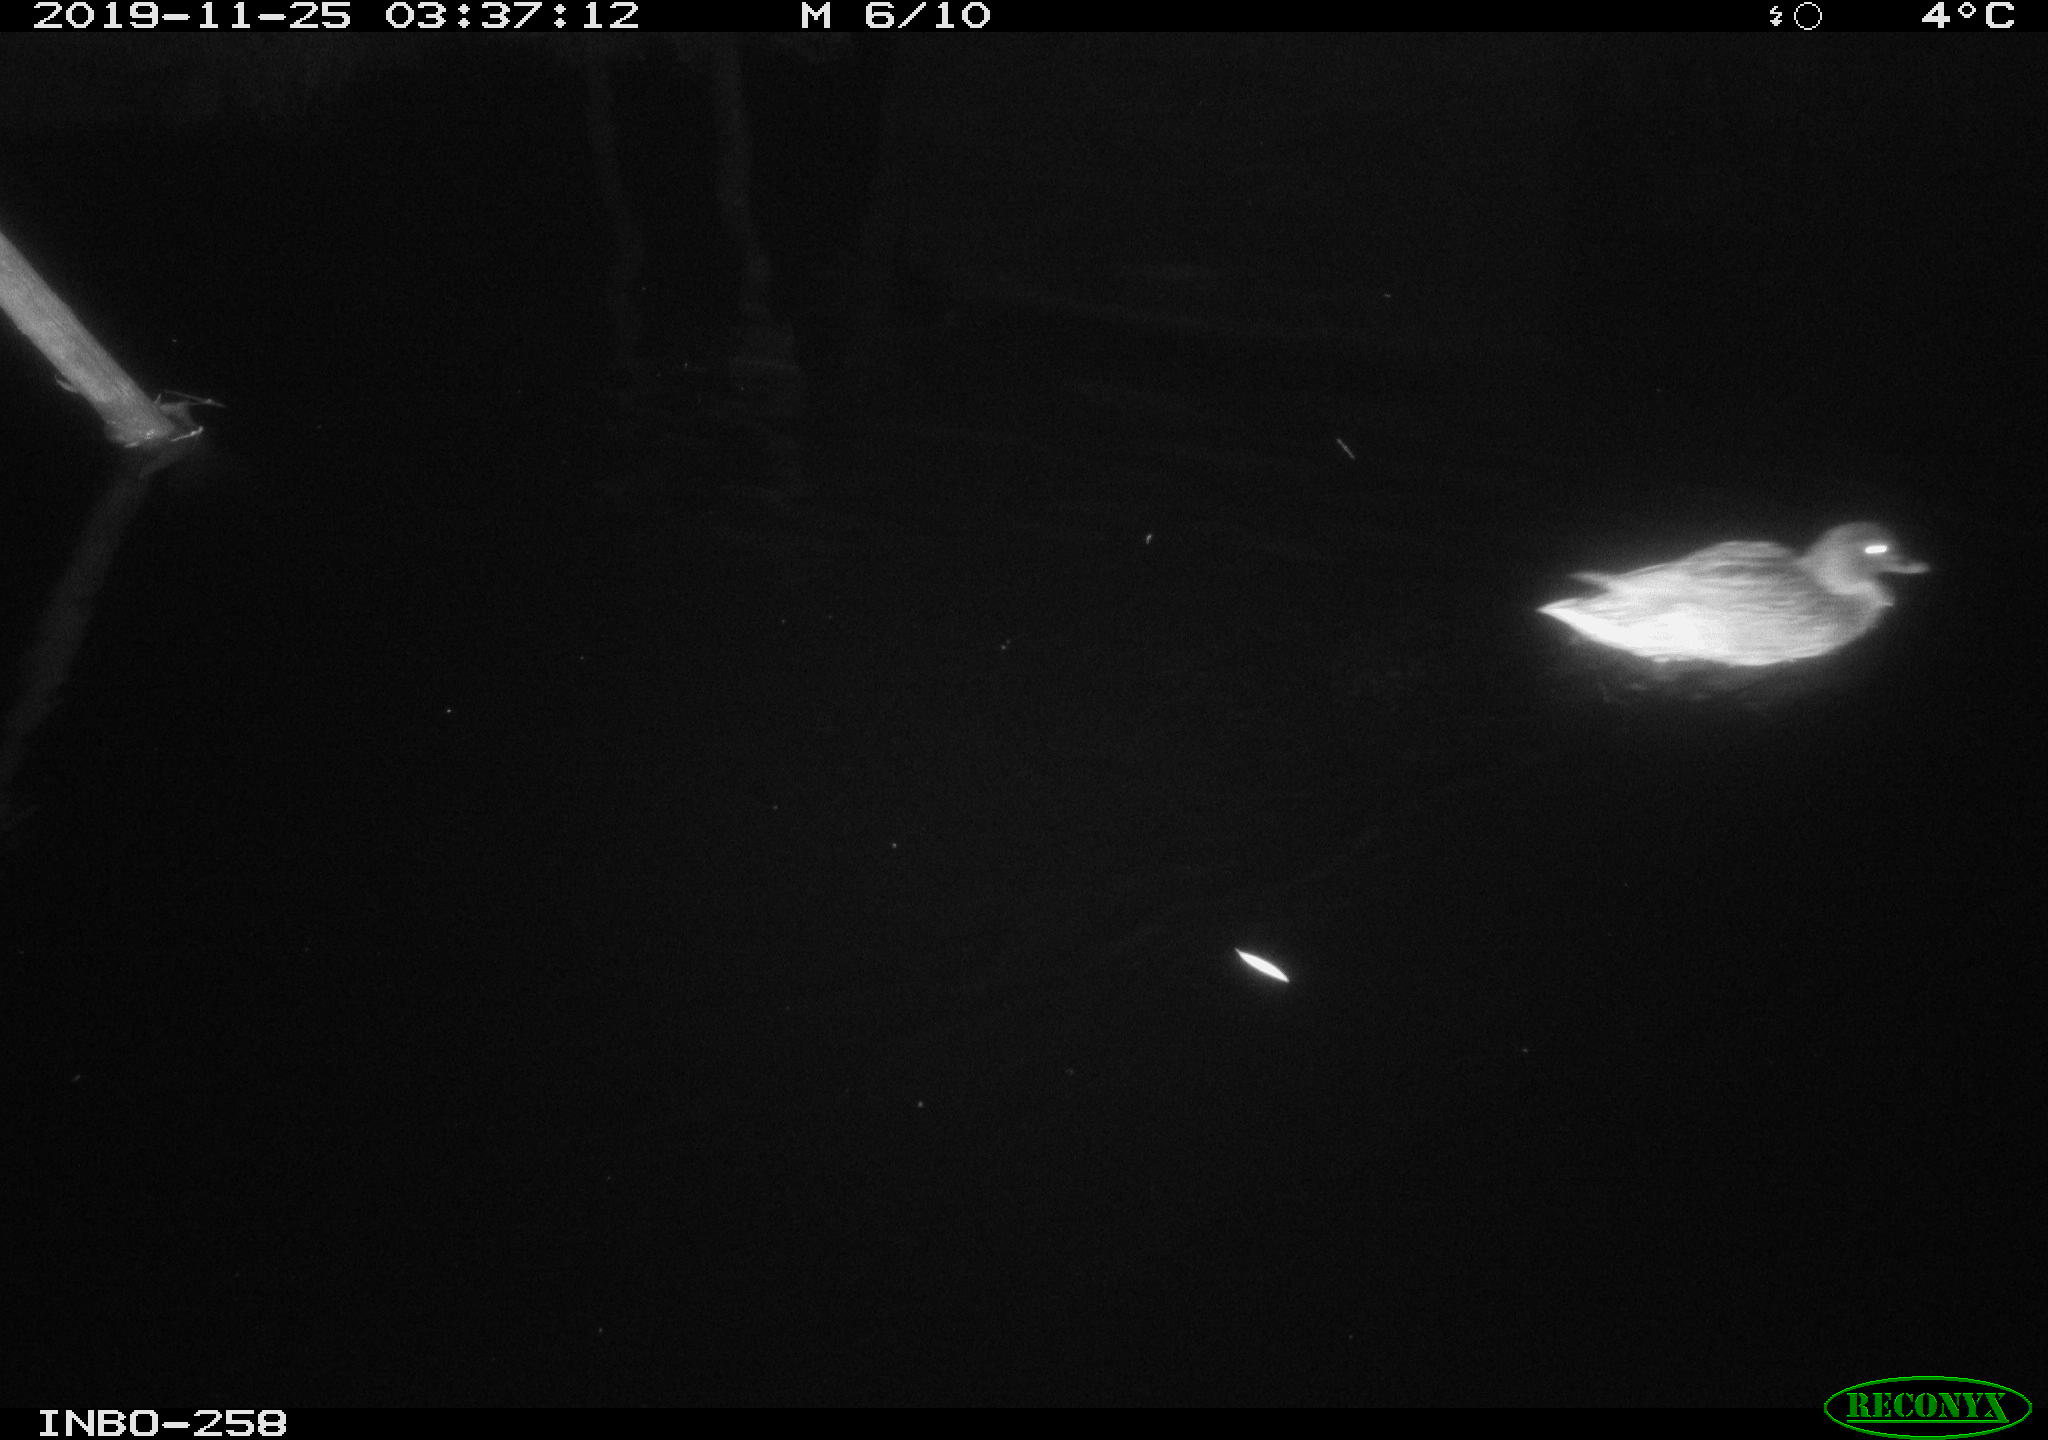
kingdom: Animalia
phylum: Chordata
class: Aves
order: Anseriformes
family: Anatidae
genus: Anas
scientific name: Anas platyrhynchos
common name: Mallard
